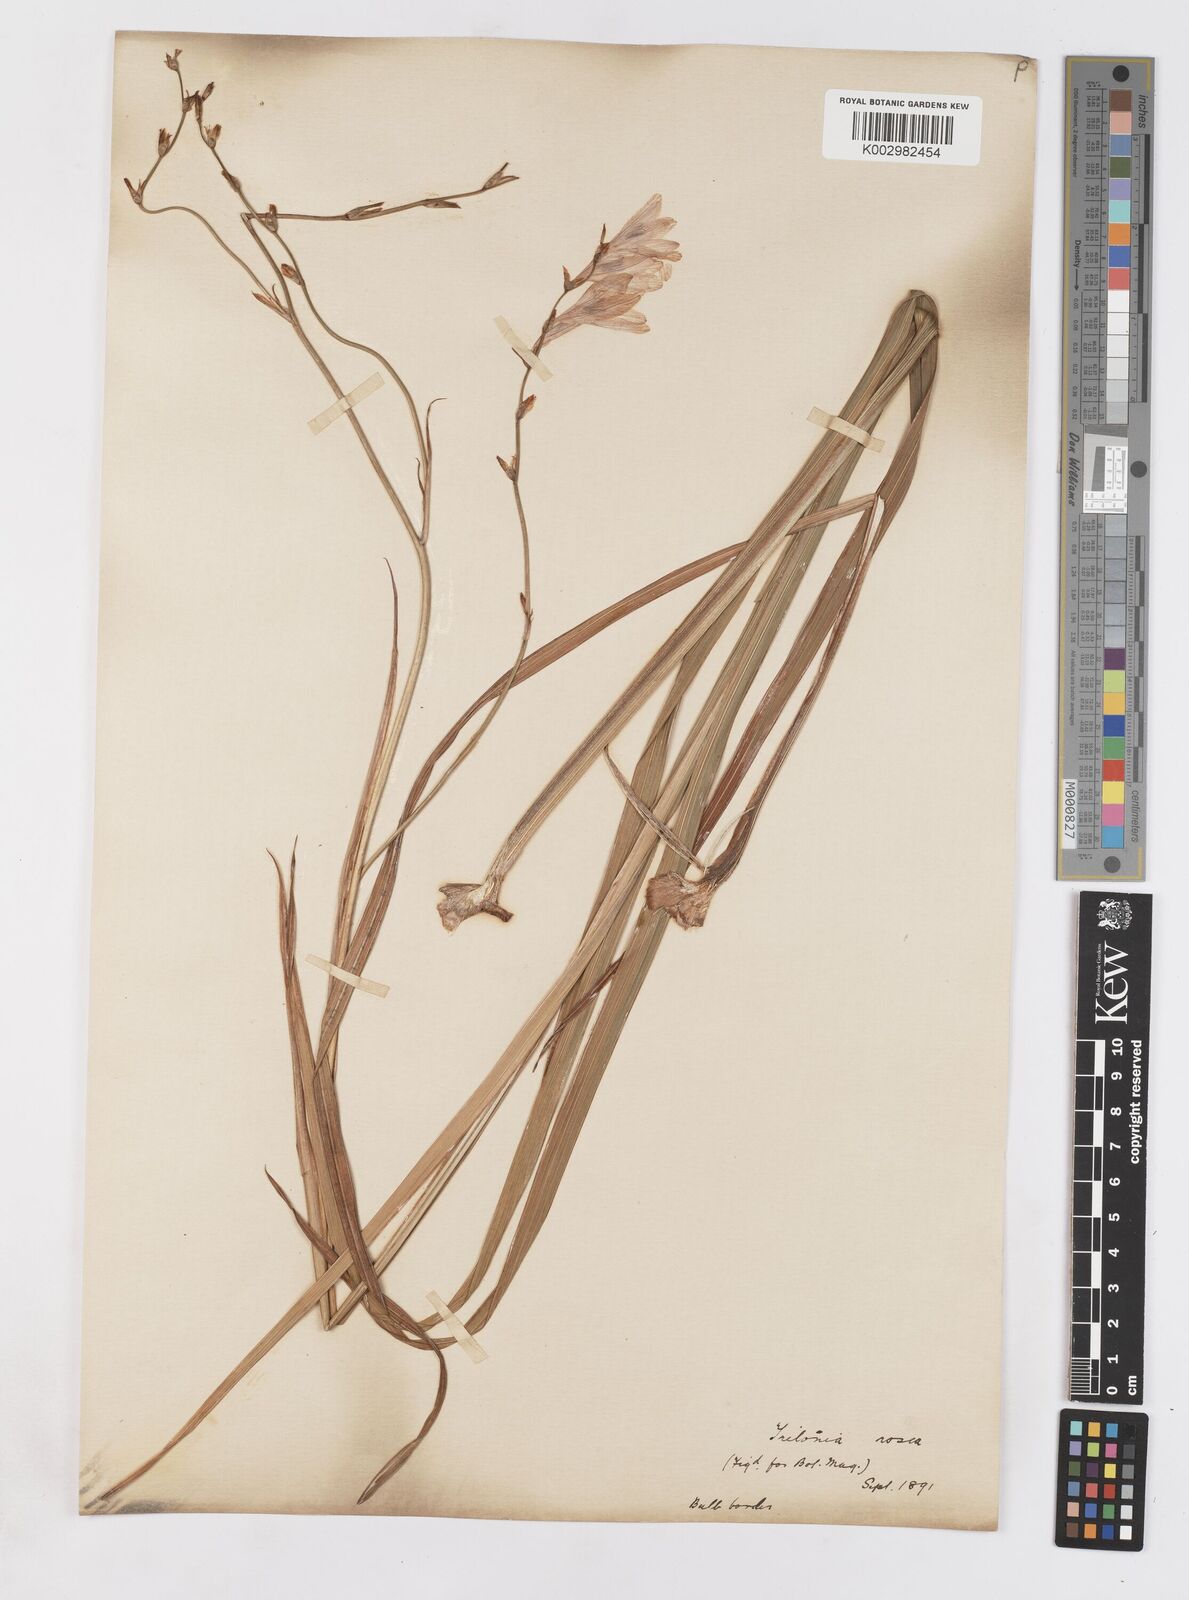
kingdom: Plantae
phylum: Tracheophyta
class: Liliopsida
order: Asparagales
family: Iridaceae
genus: Tritonia
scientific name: Tritonia disticha
